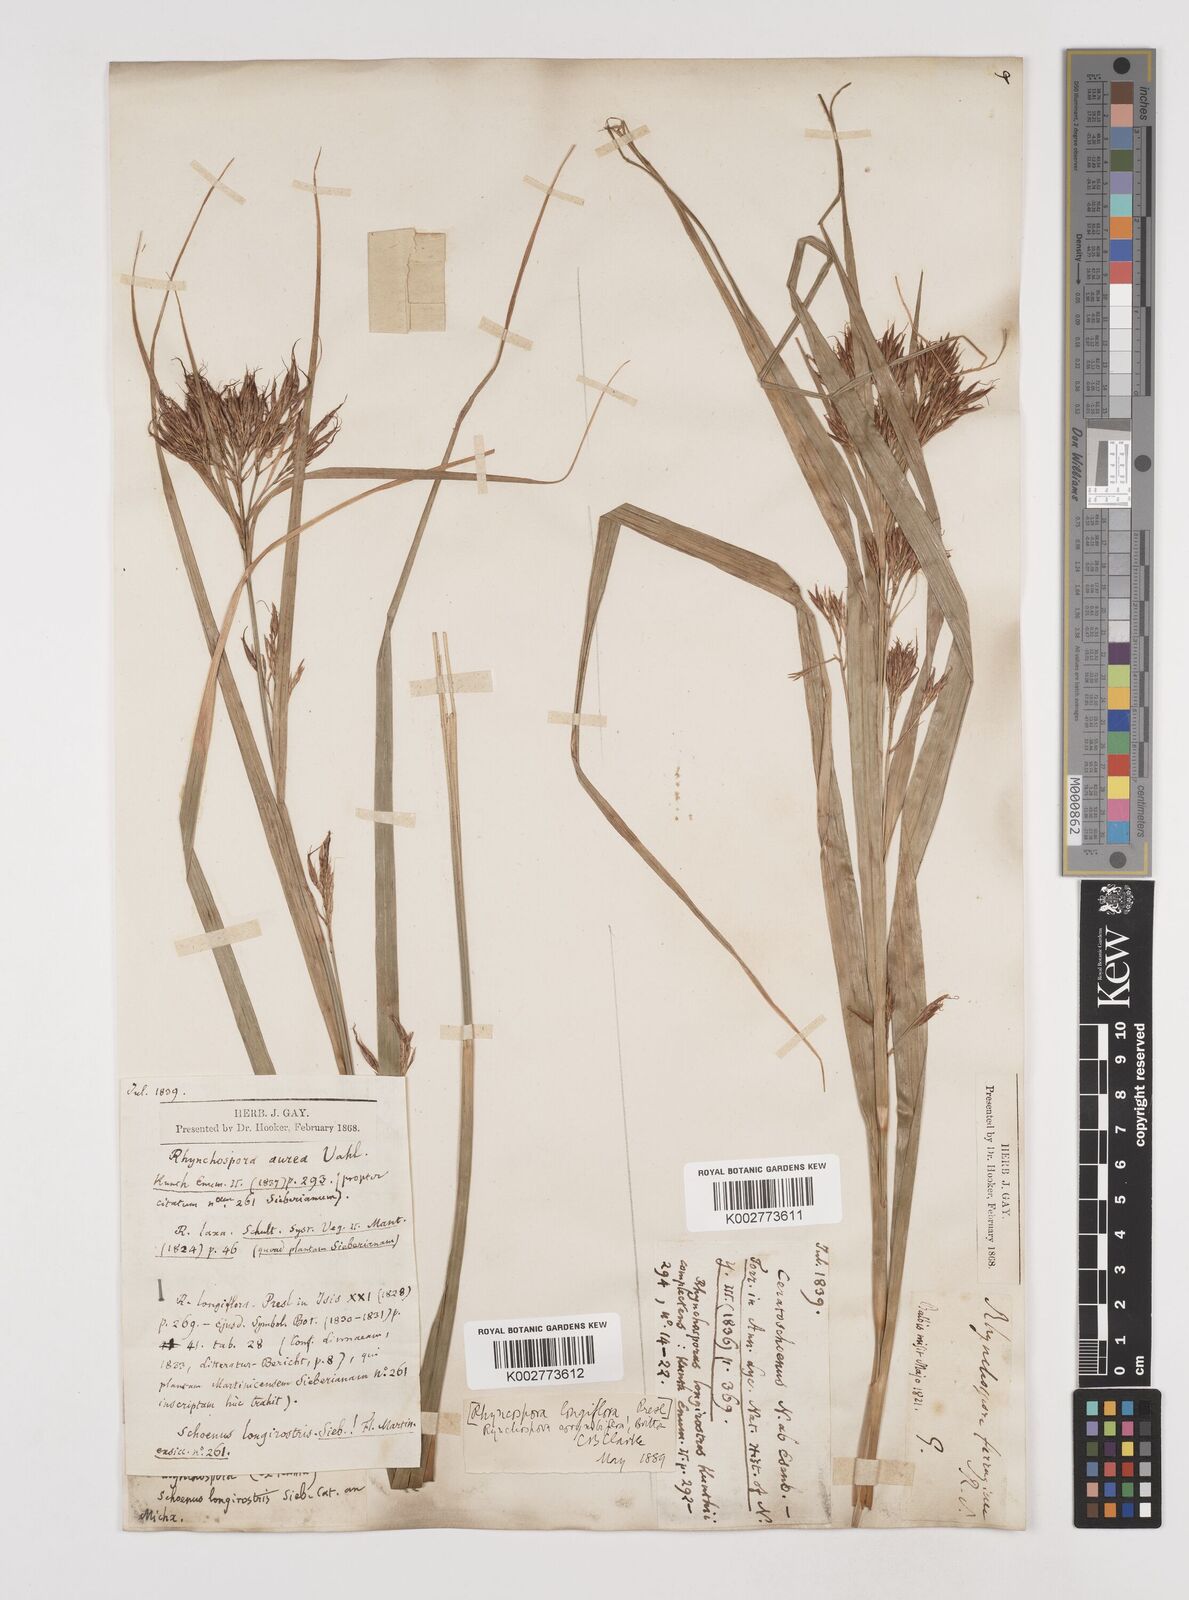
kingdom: Plantae
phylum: Tracheophyta
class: Liliopsida
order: Poales
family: Cyperaceae
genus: Rhynchospora
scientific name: Rhynchospora longiflora
